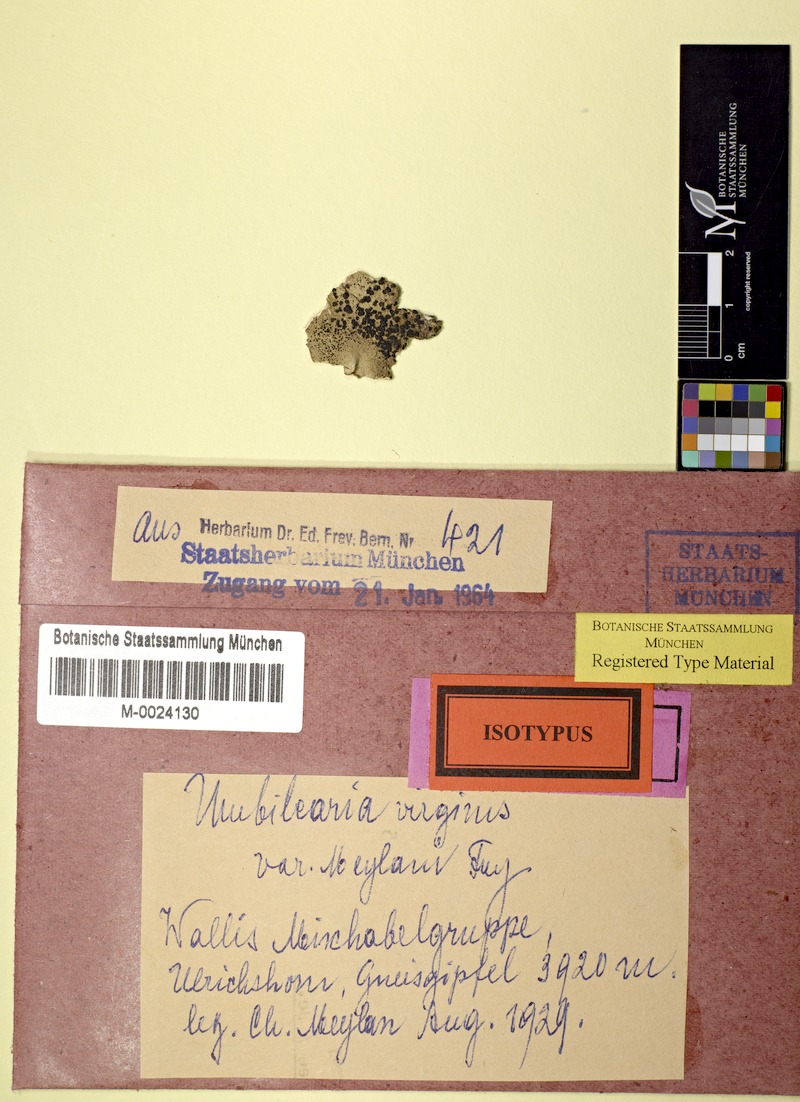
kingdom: Fungi
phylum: Ascomycota
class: Lecanoromycetes
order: Umbilicariales
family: Umbilicariaceae
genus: Umbilicaria
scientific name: Umbilicaria virginis
